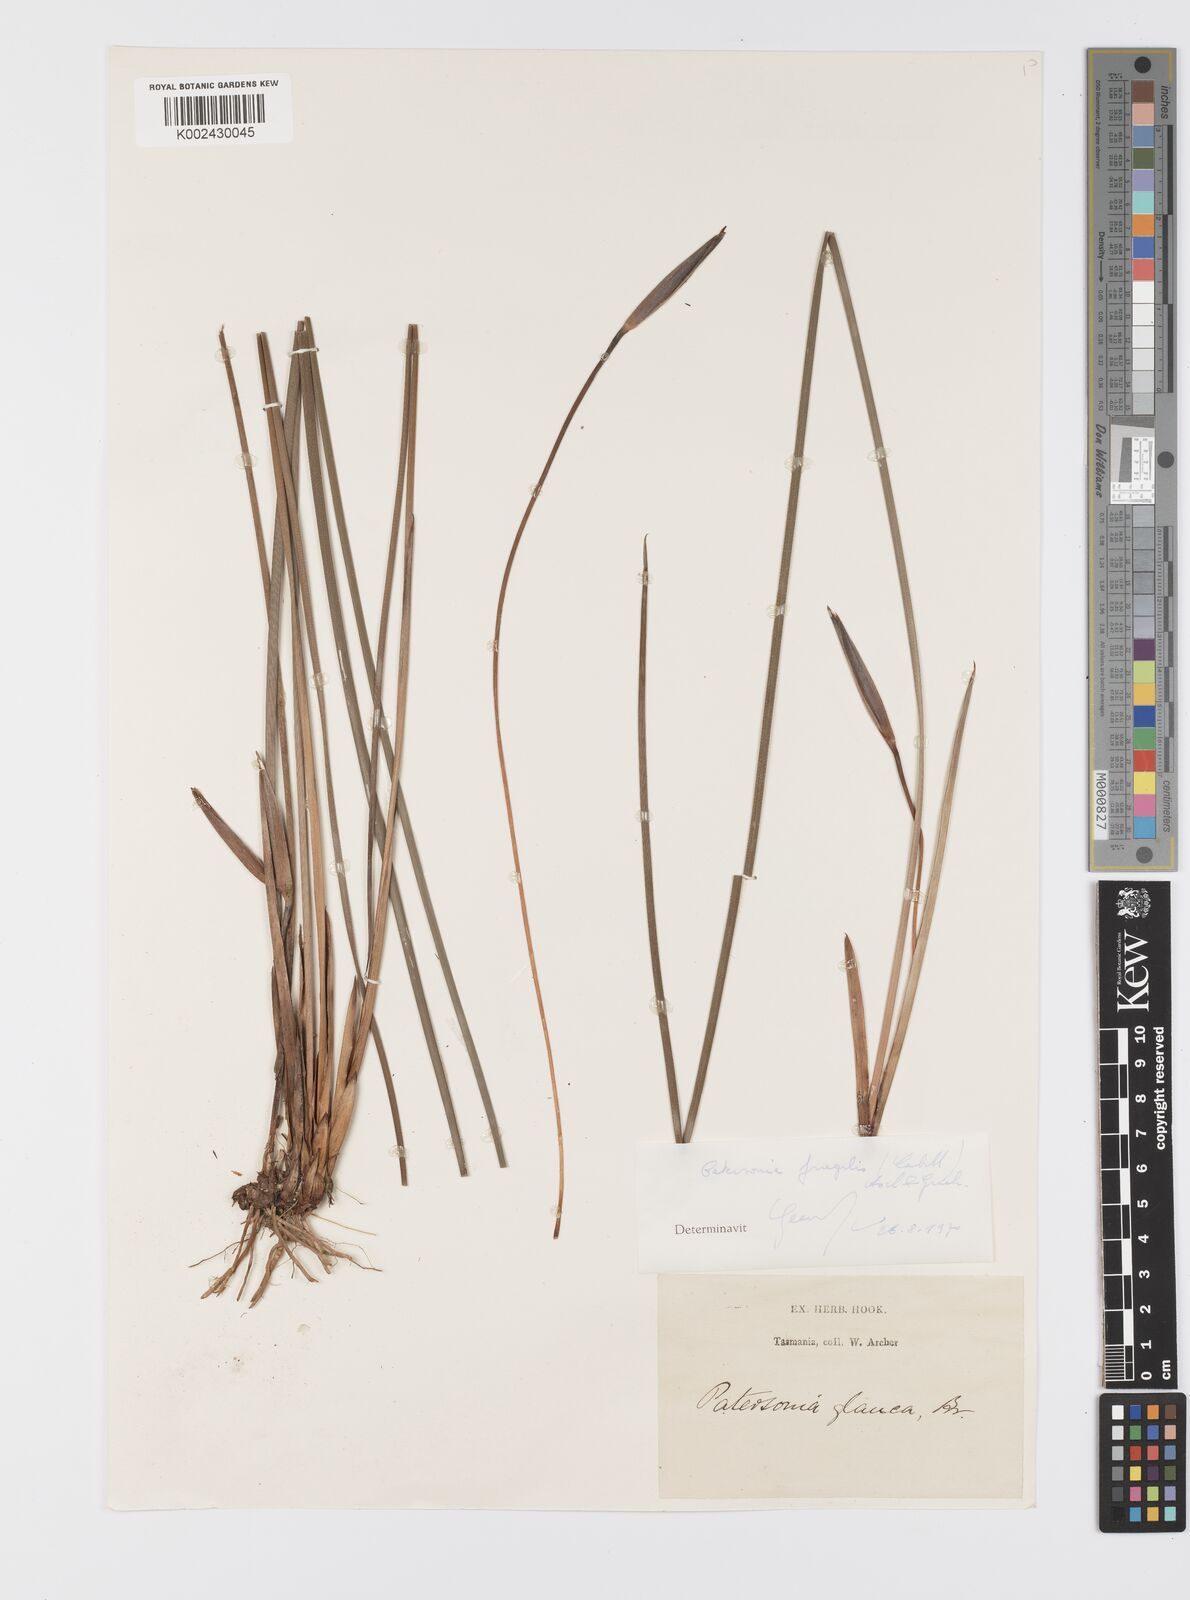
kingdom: Plantae
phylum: Tracheophyta
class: Liliopsida
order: Asparagales
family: Iridaceae
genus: Patersonia
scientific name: Patersonia fragilis
